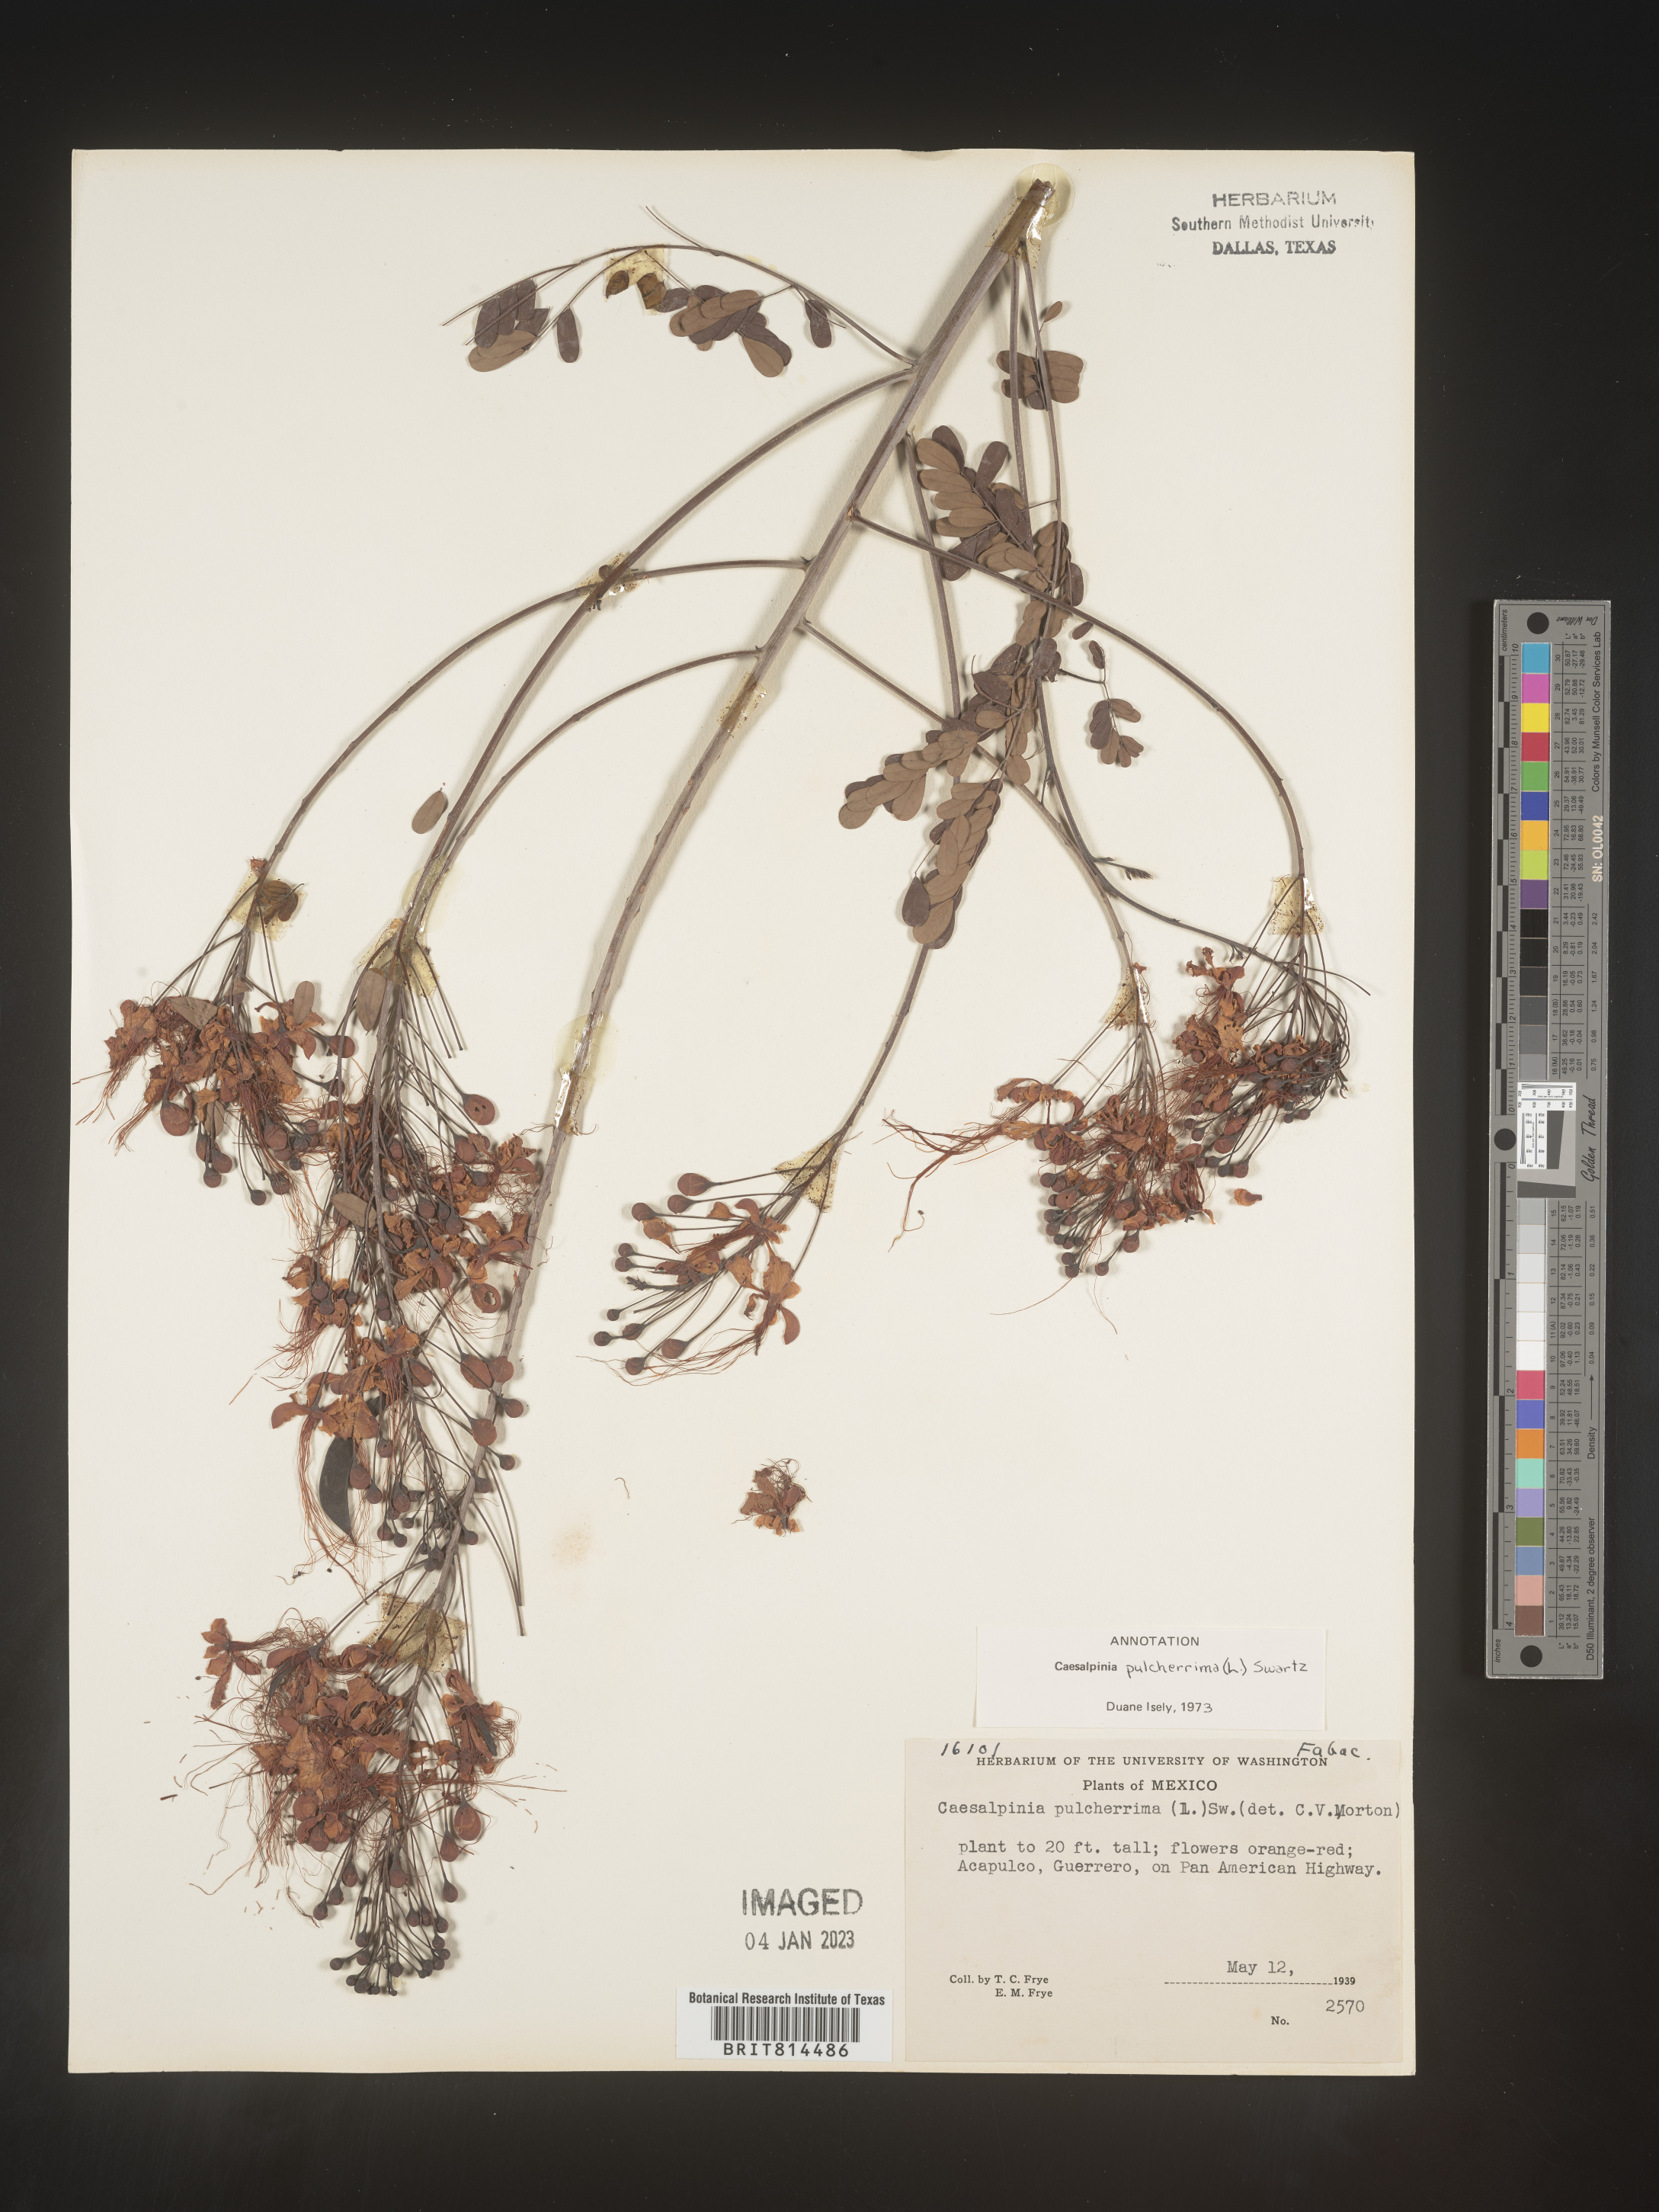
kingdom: Plantae
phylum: Tracheophyta
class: Magnoliopsida
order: Fabales
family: Fabaceae
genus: Caesalpinia
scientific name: Caesalpinia
